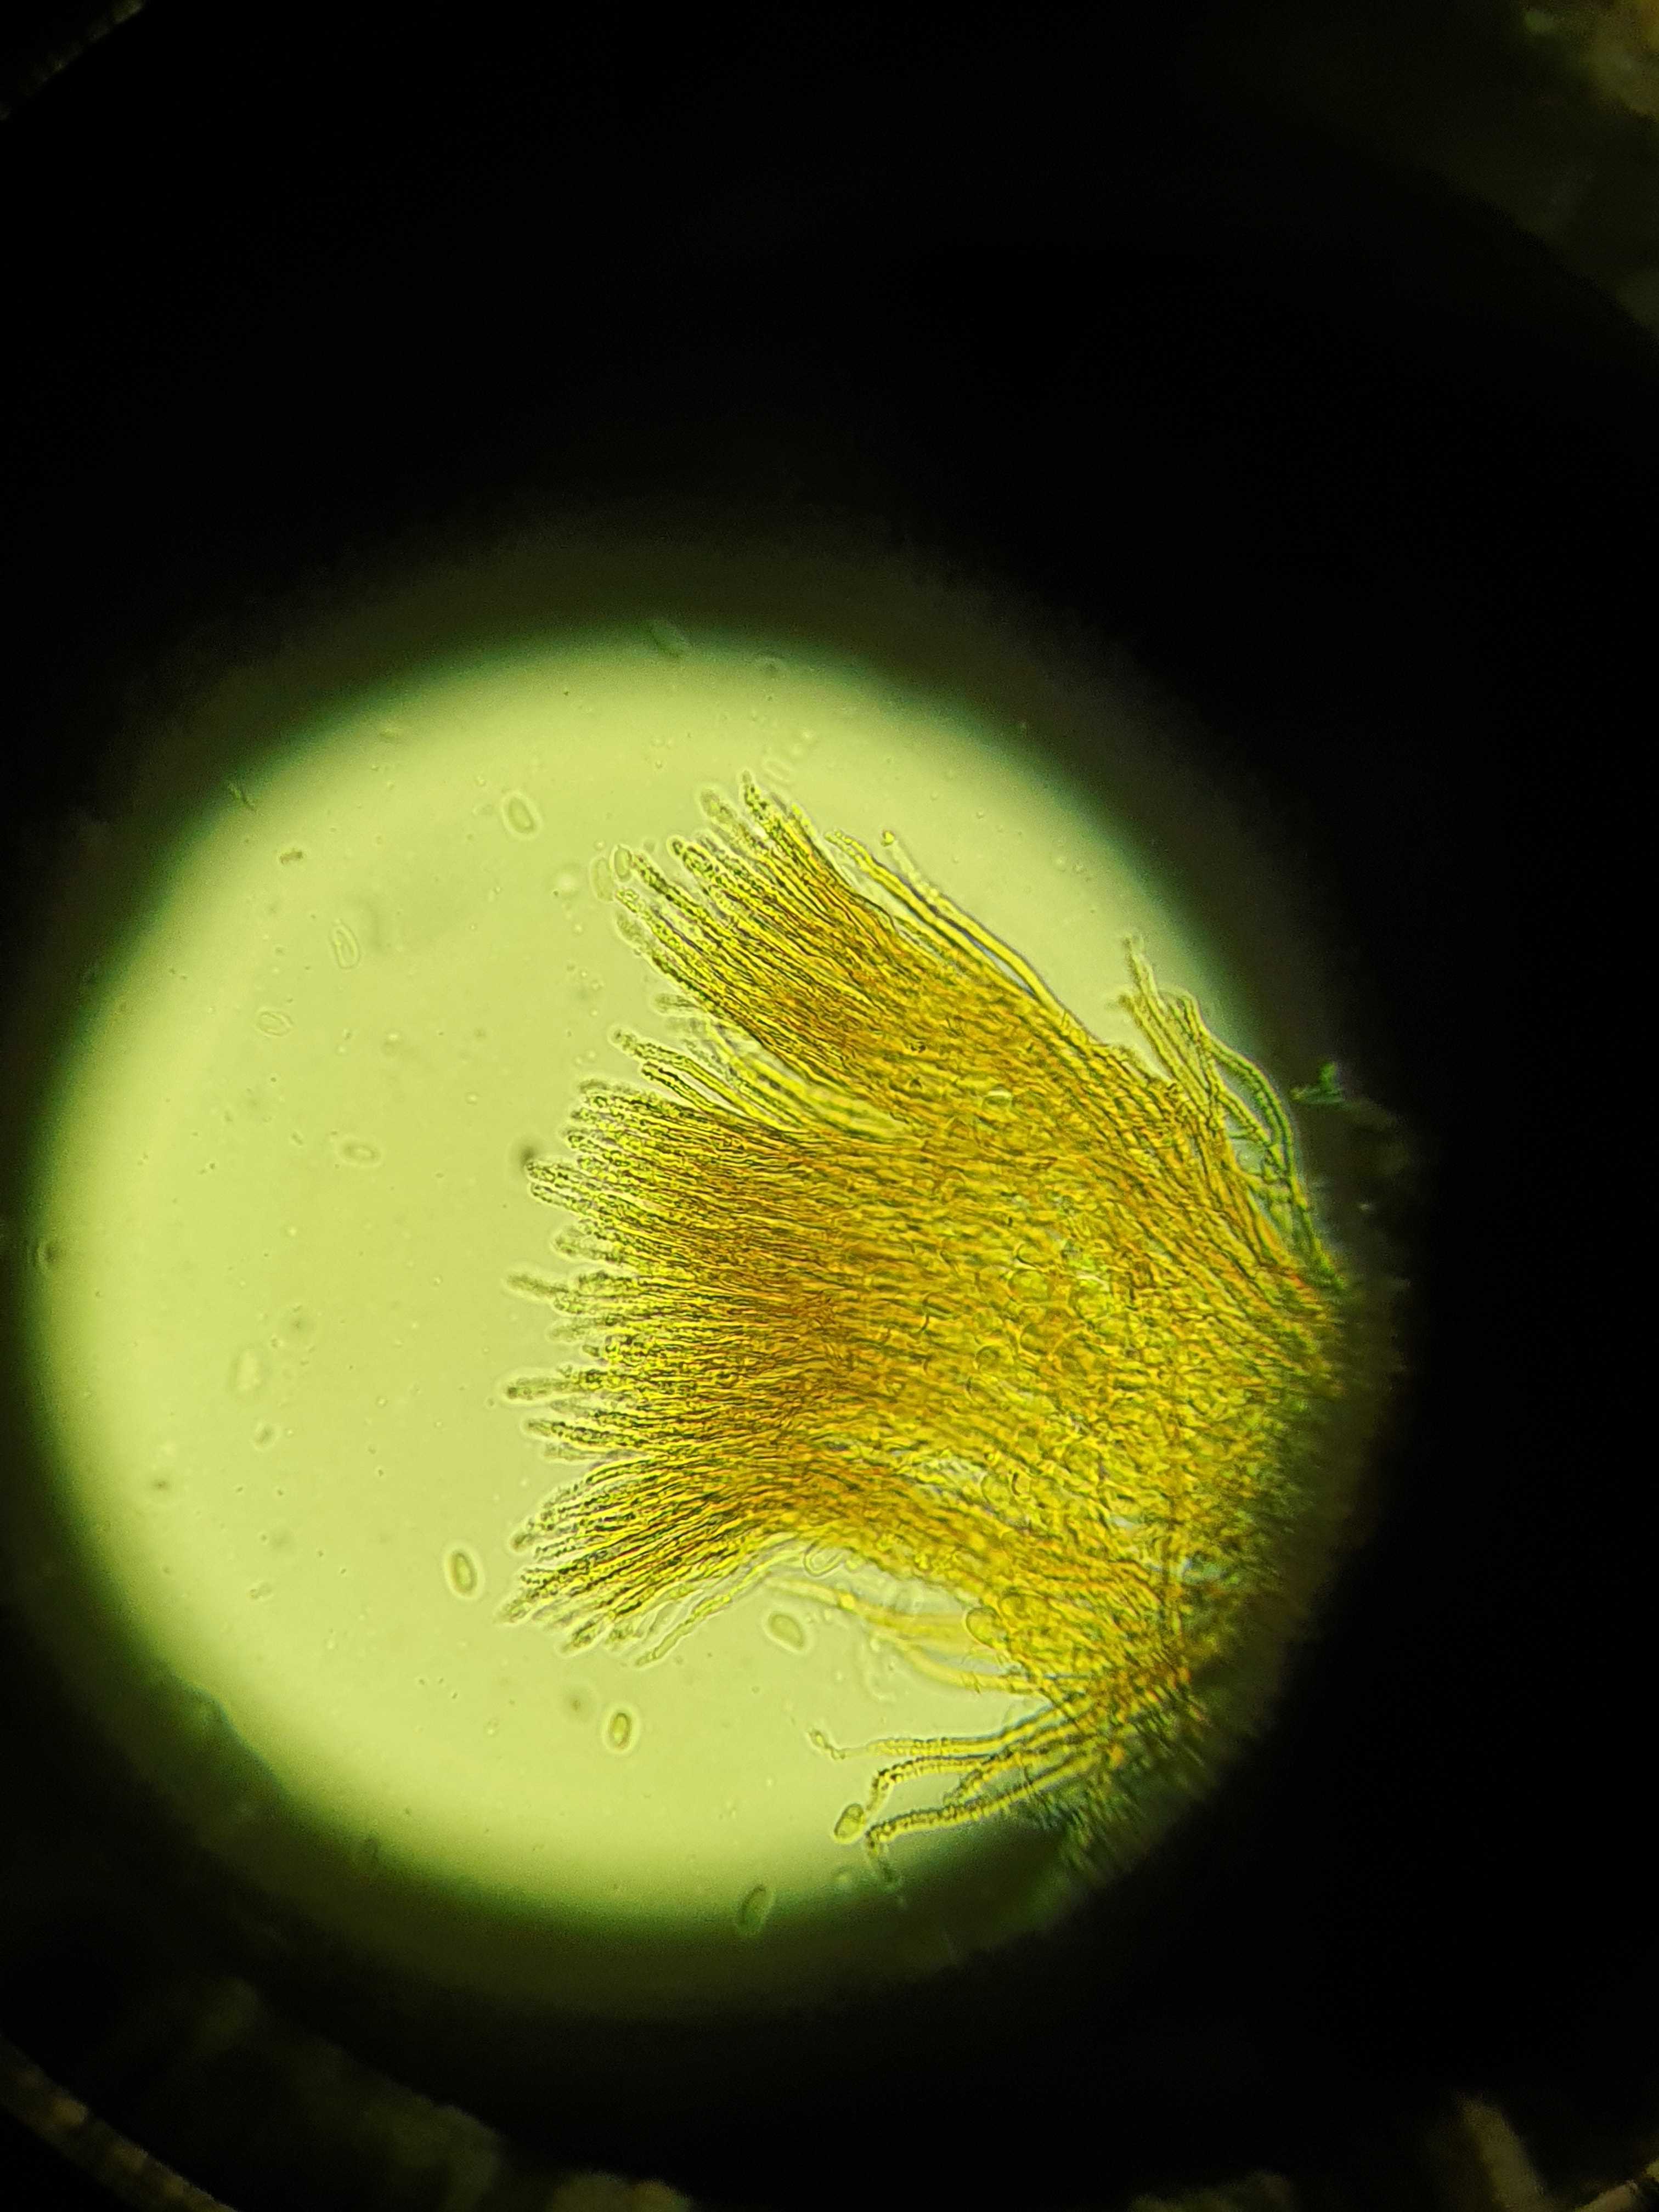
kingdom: Fungi
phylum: Basidiomycota
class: Agaricomycetes
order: Agaricales
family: Niaceae
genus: Merismodes
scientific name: Merismodes anomala
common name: almindelig læderskål
